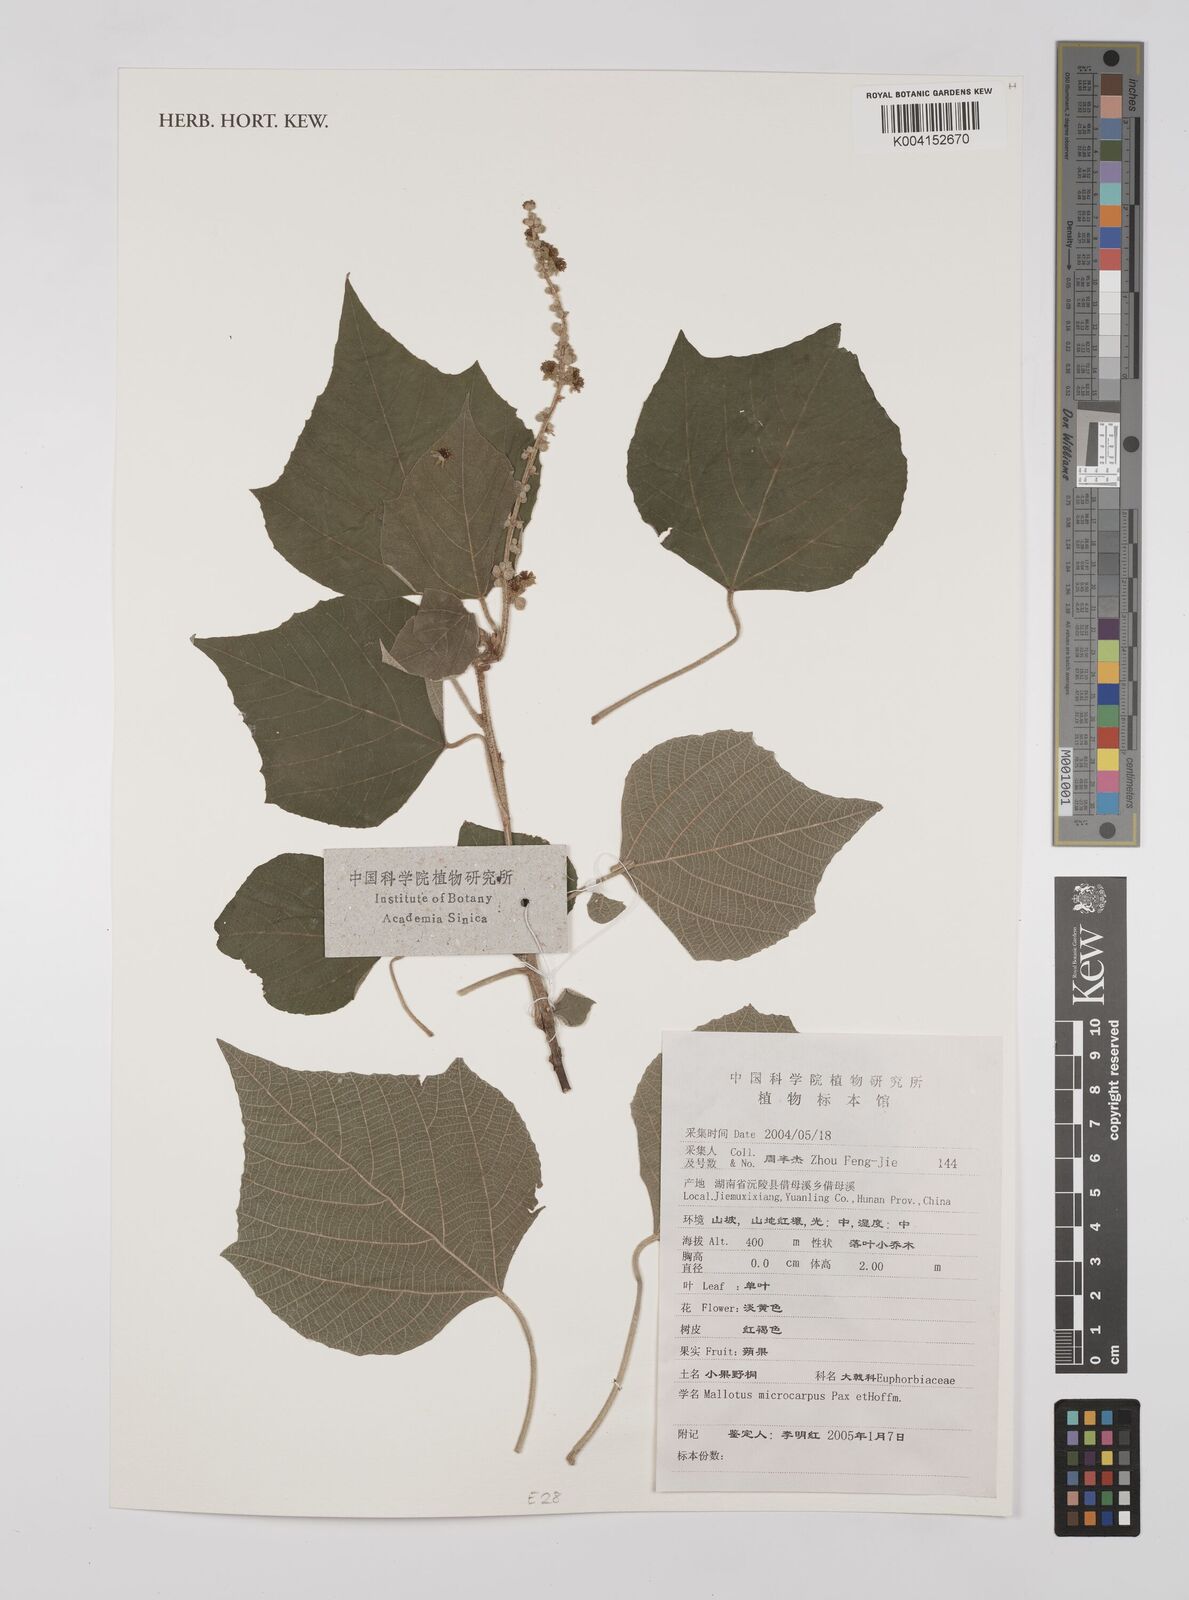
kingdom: Plantae
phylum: Tracheophyta
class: Magnoliopsida
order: Malpighiales
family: Euphorbiaceae
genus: Mallotus
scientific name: Mallotus microcarpus
